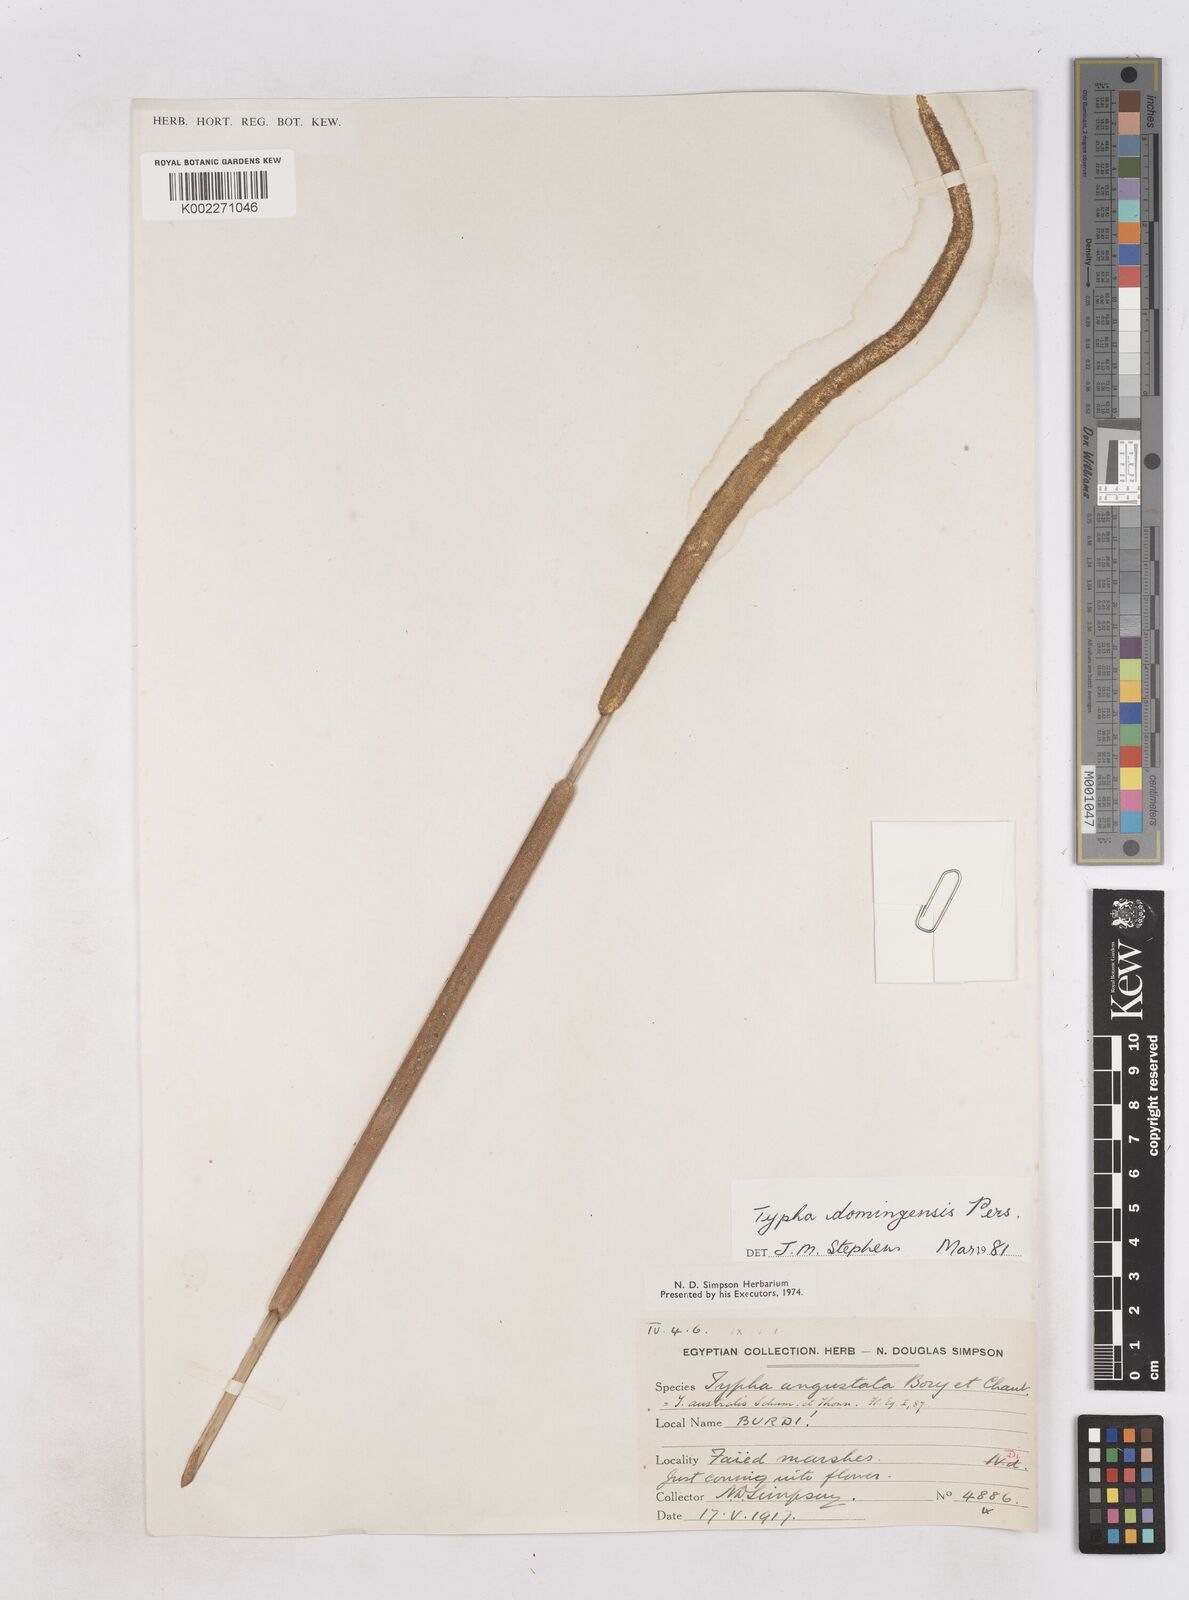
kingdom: Plantae
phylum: Tracheophyta
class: Liliopsida
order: Poales
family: Typhaceae
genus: Typha
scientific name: Typha domingensis
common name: Southern cattail
